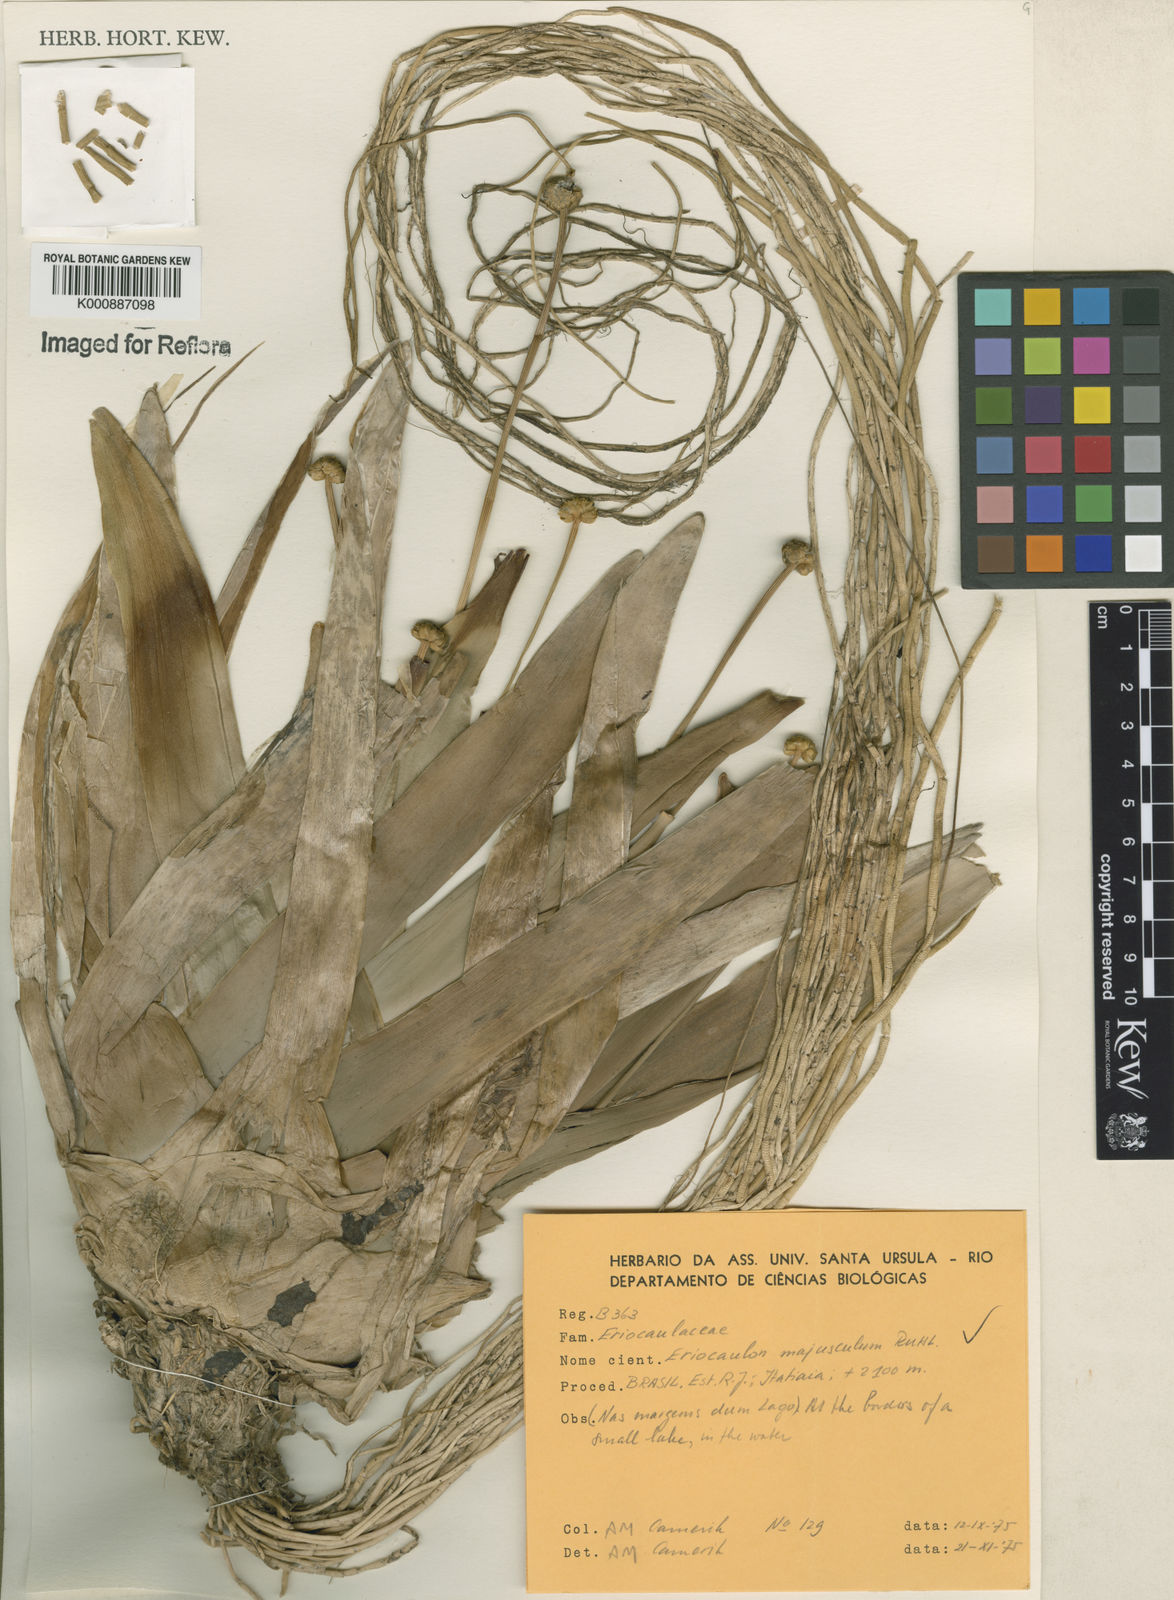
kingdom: Plantae
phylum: Tracheophyta
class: Liliopsida
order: Poales
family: Eriocaulaceae
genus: Eriocaulon
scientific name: Eriocaulon majusculum
